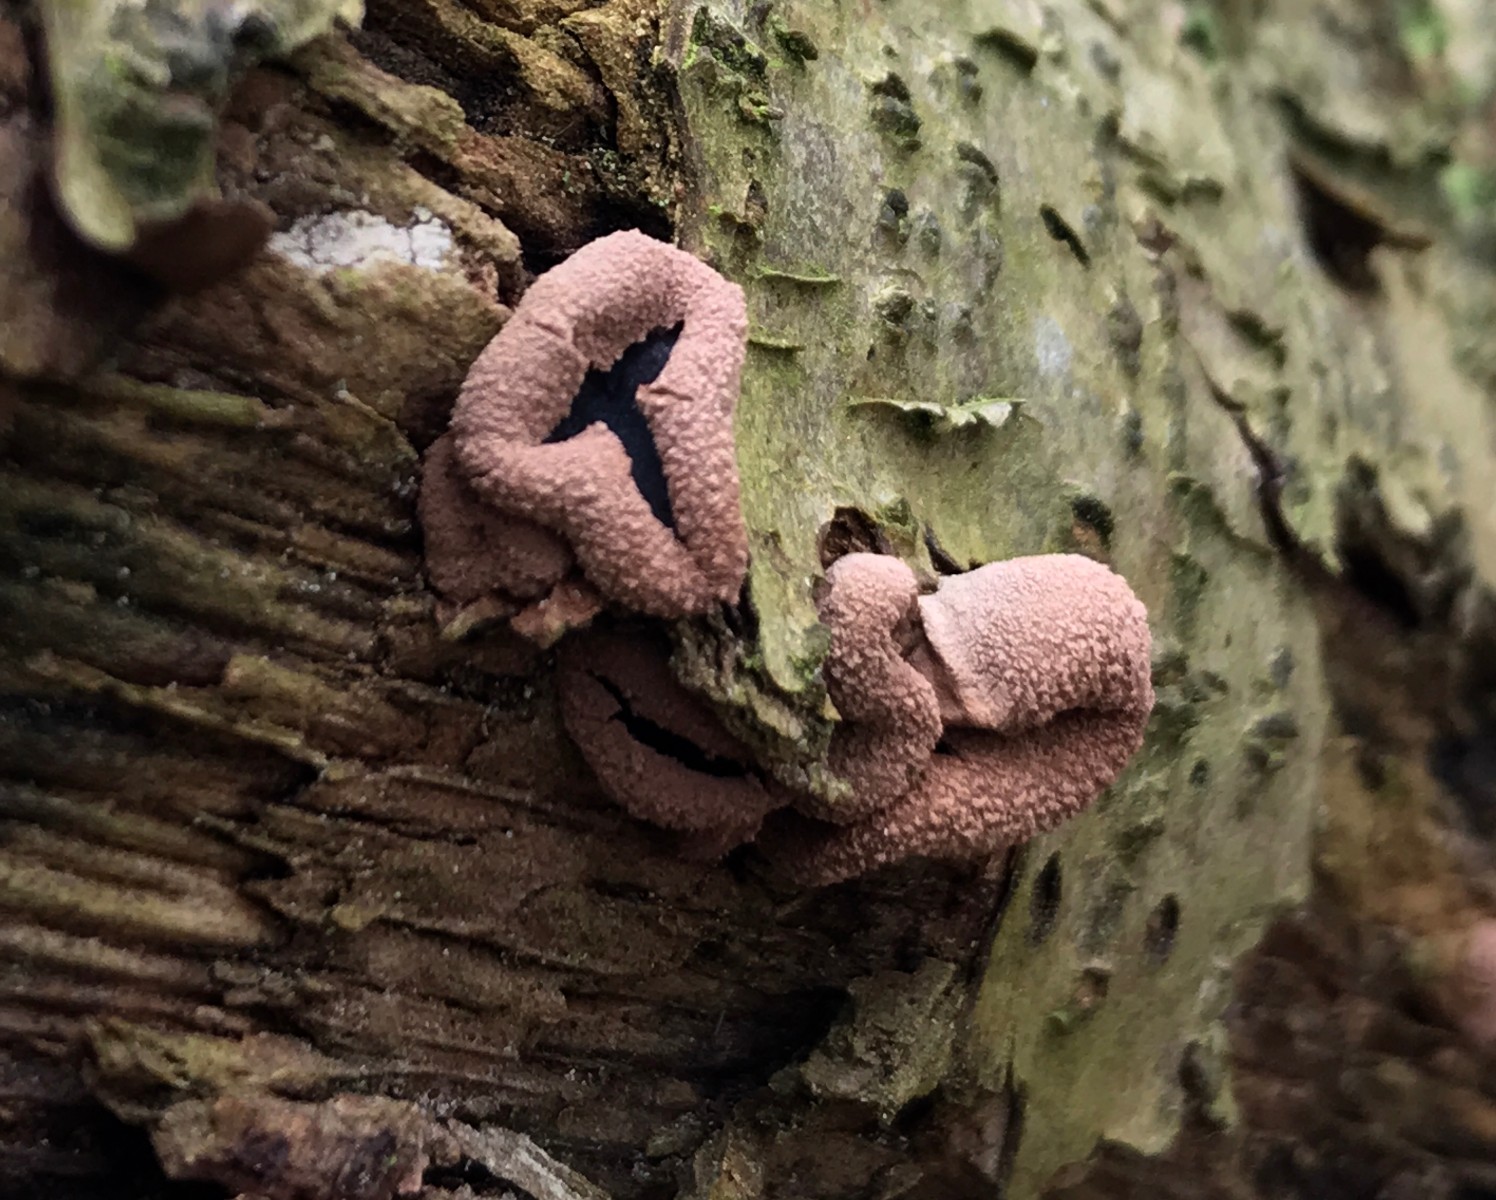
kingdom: Fungi
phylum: Ascomycota
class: Leotiomycetes
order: Helotiales
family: Cenangiaceae
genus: Encoelia
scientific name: Encoelia furfuracea
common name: hassel-læderskive
